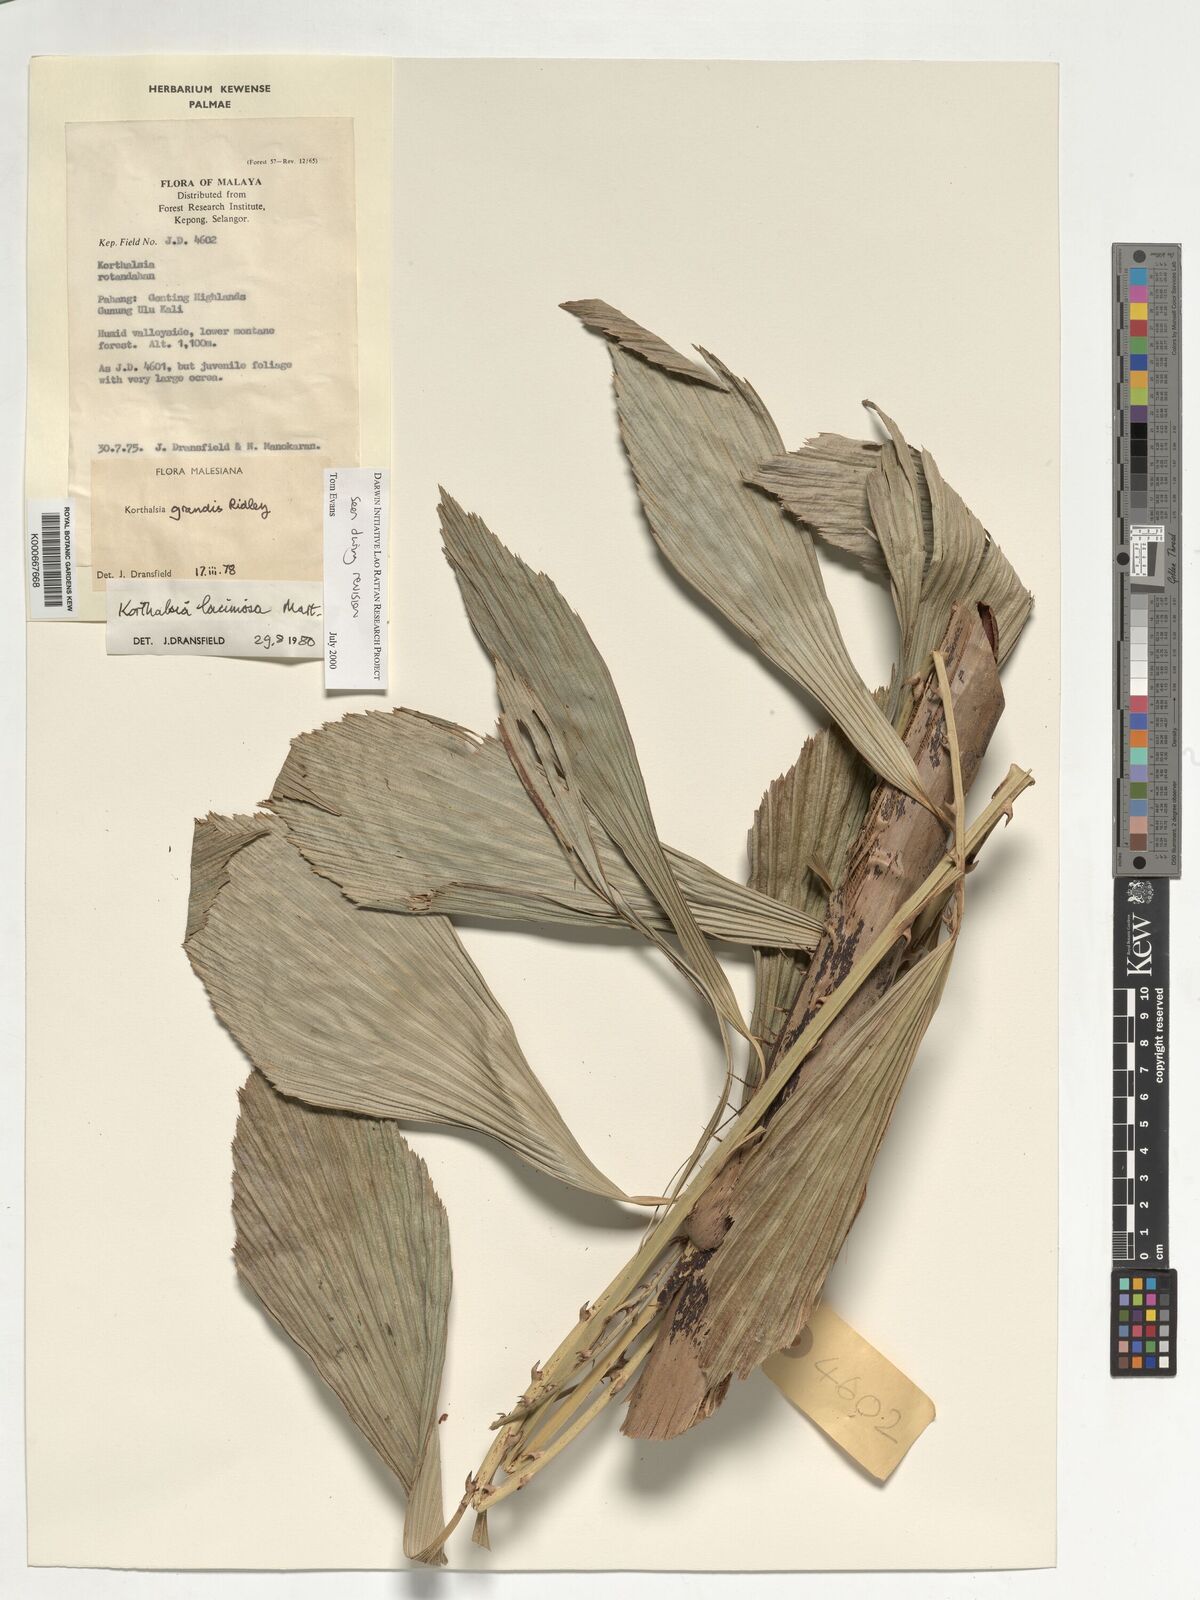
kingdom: Plantae
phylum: Tracheophyta
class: Liliopsida
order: Arecales
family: Arecaceae
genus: Korthalsia
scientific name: Korthalsia laciniosa
